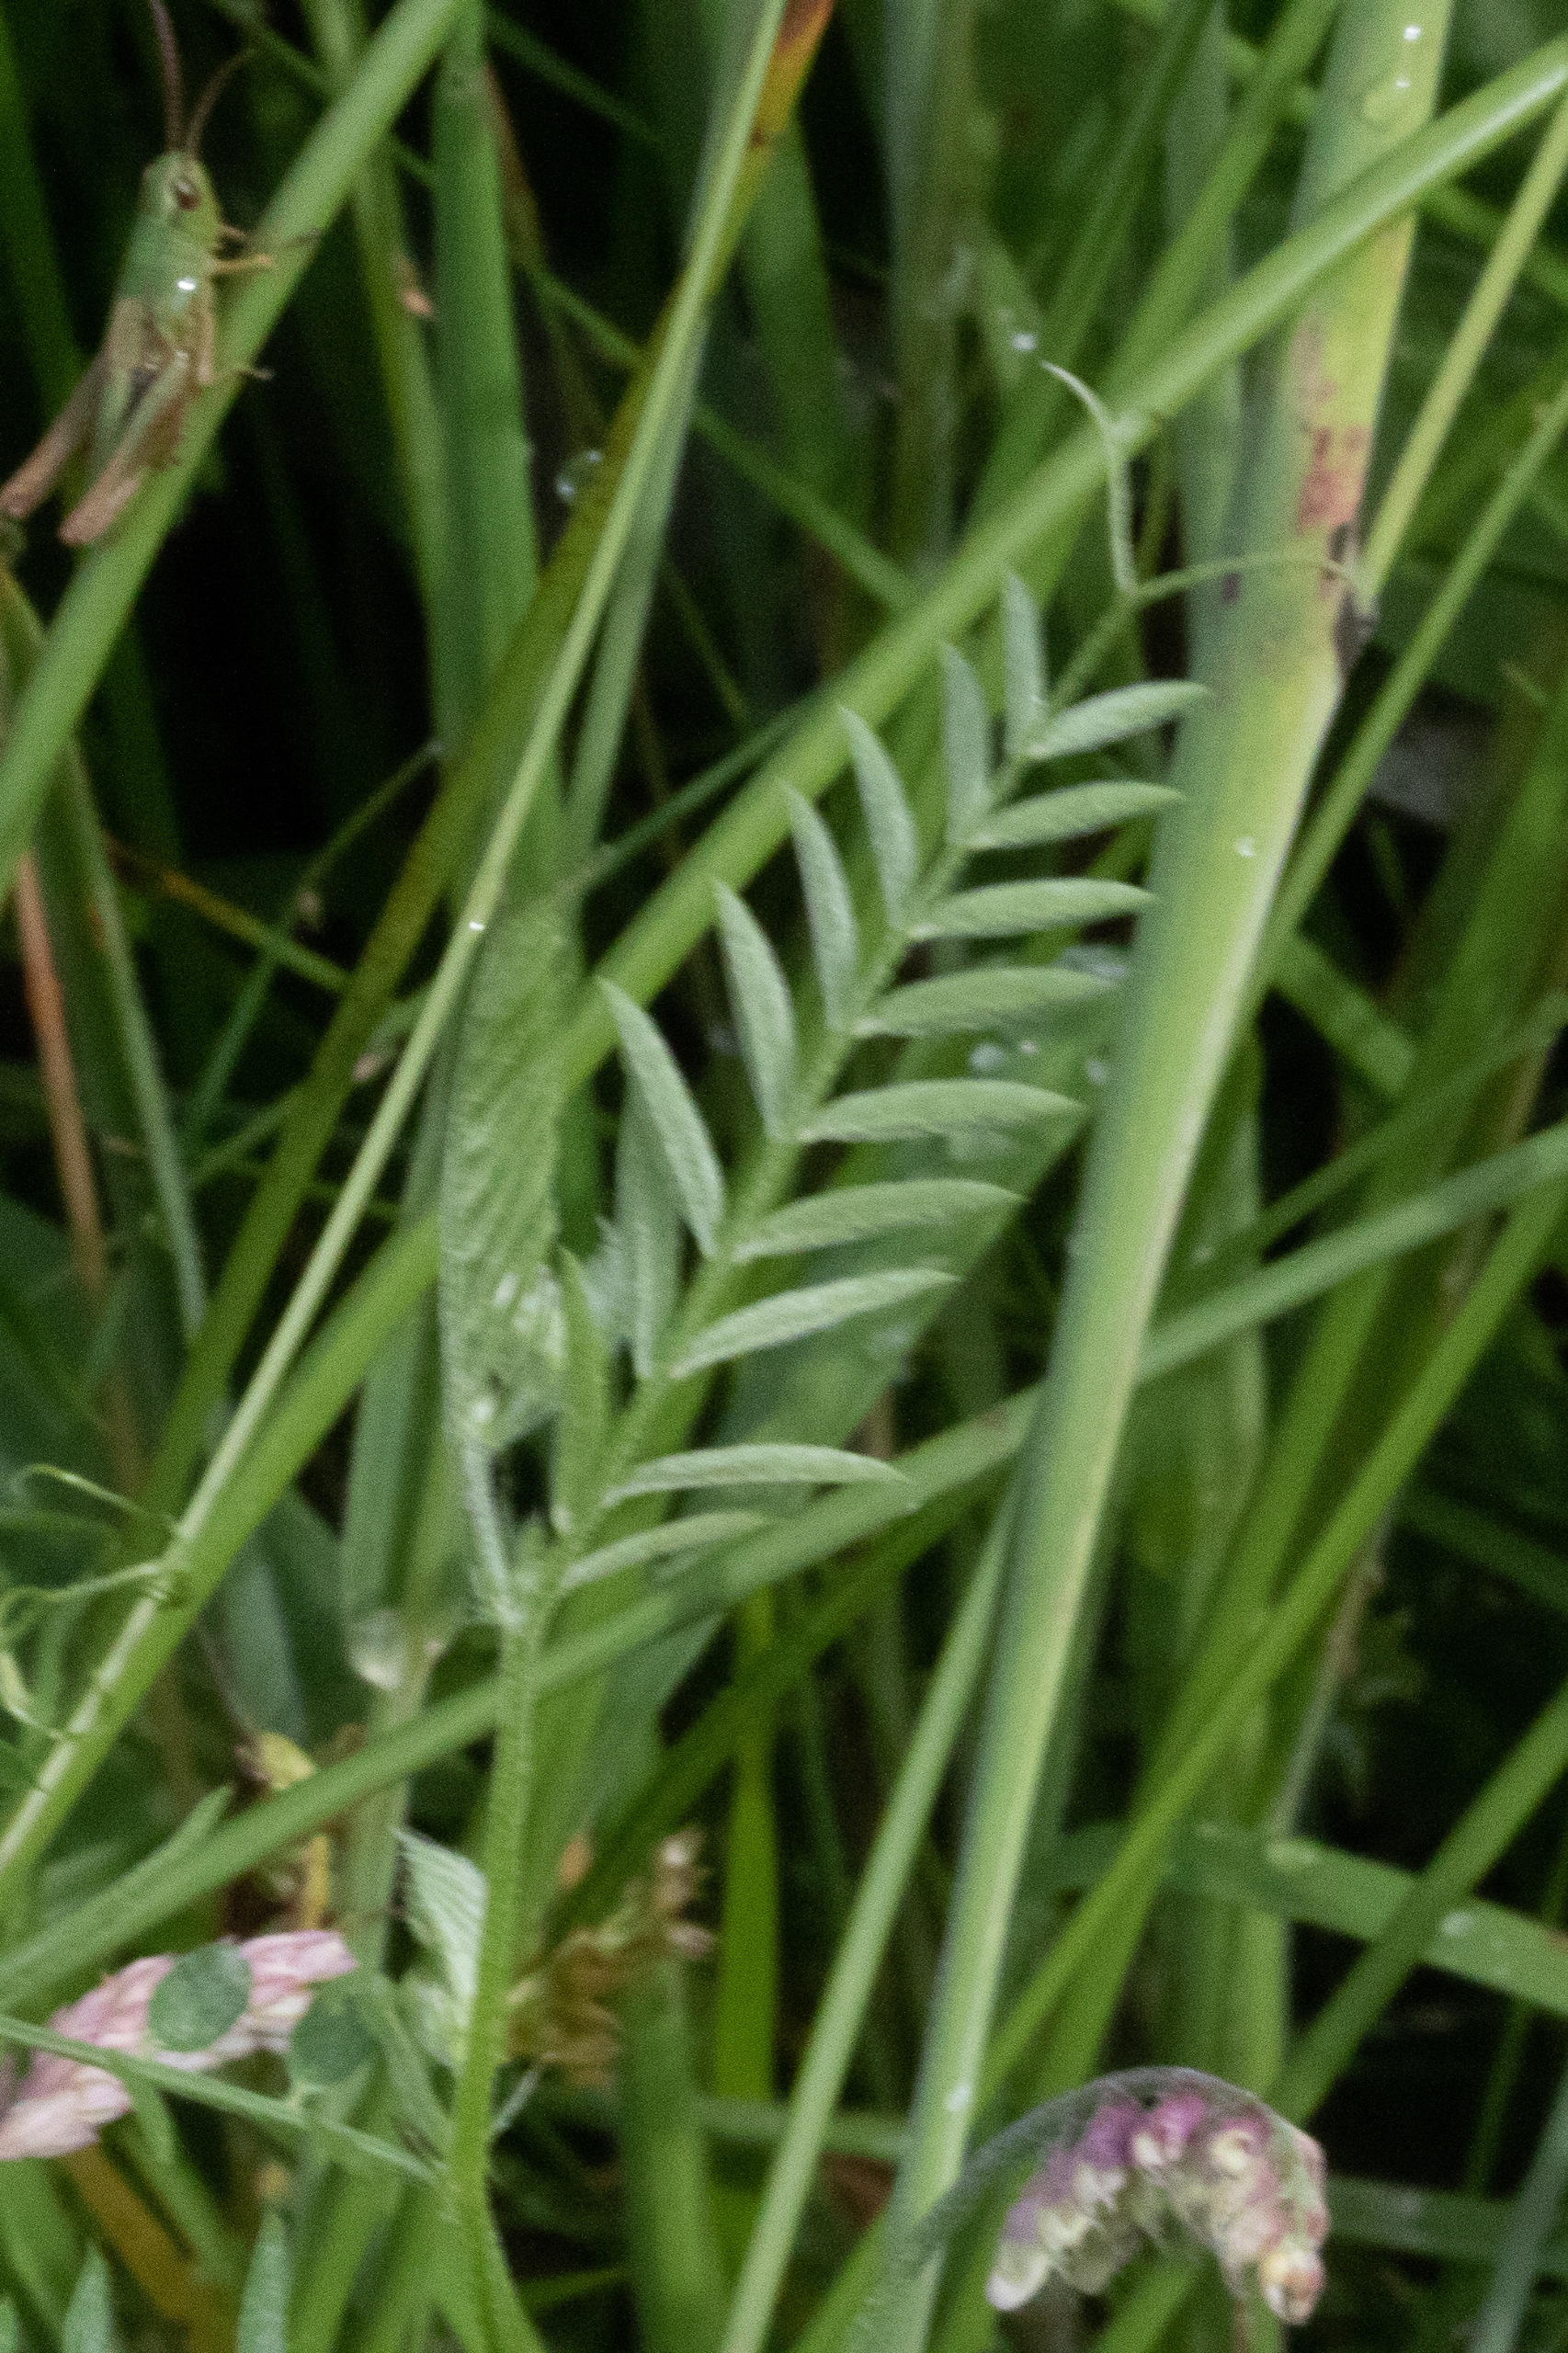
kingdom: Plantae
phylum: Tracheophyta
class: Magnoliopsida
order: Fabales
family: Fabaceae
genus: Vicia
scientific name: Vicia cracca
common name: Muse-vikke
